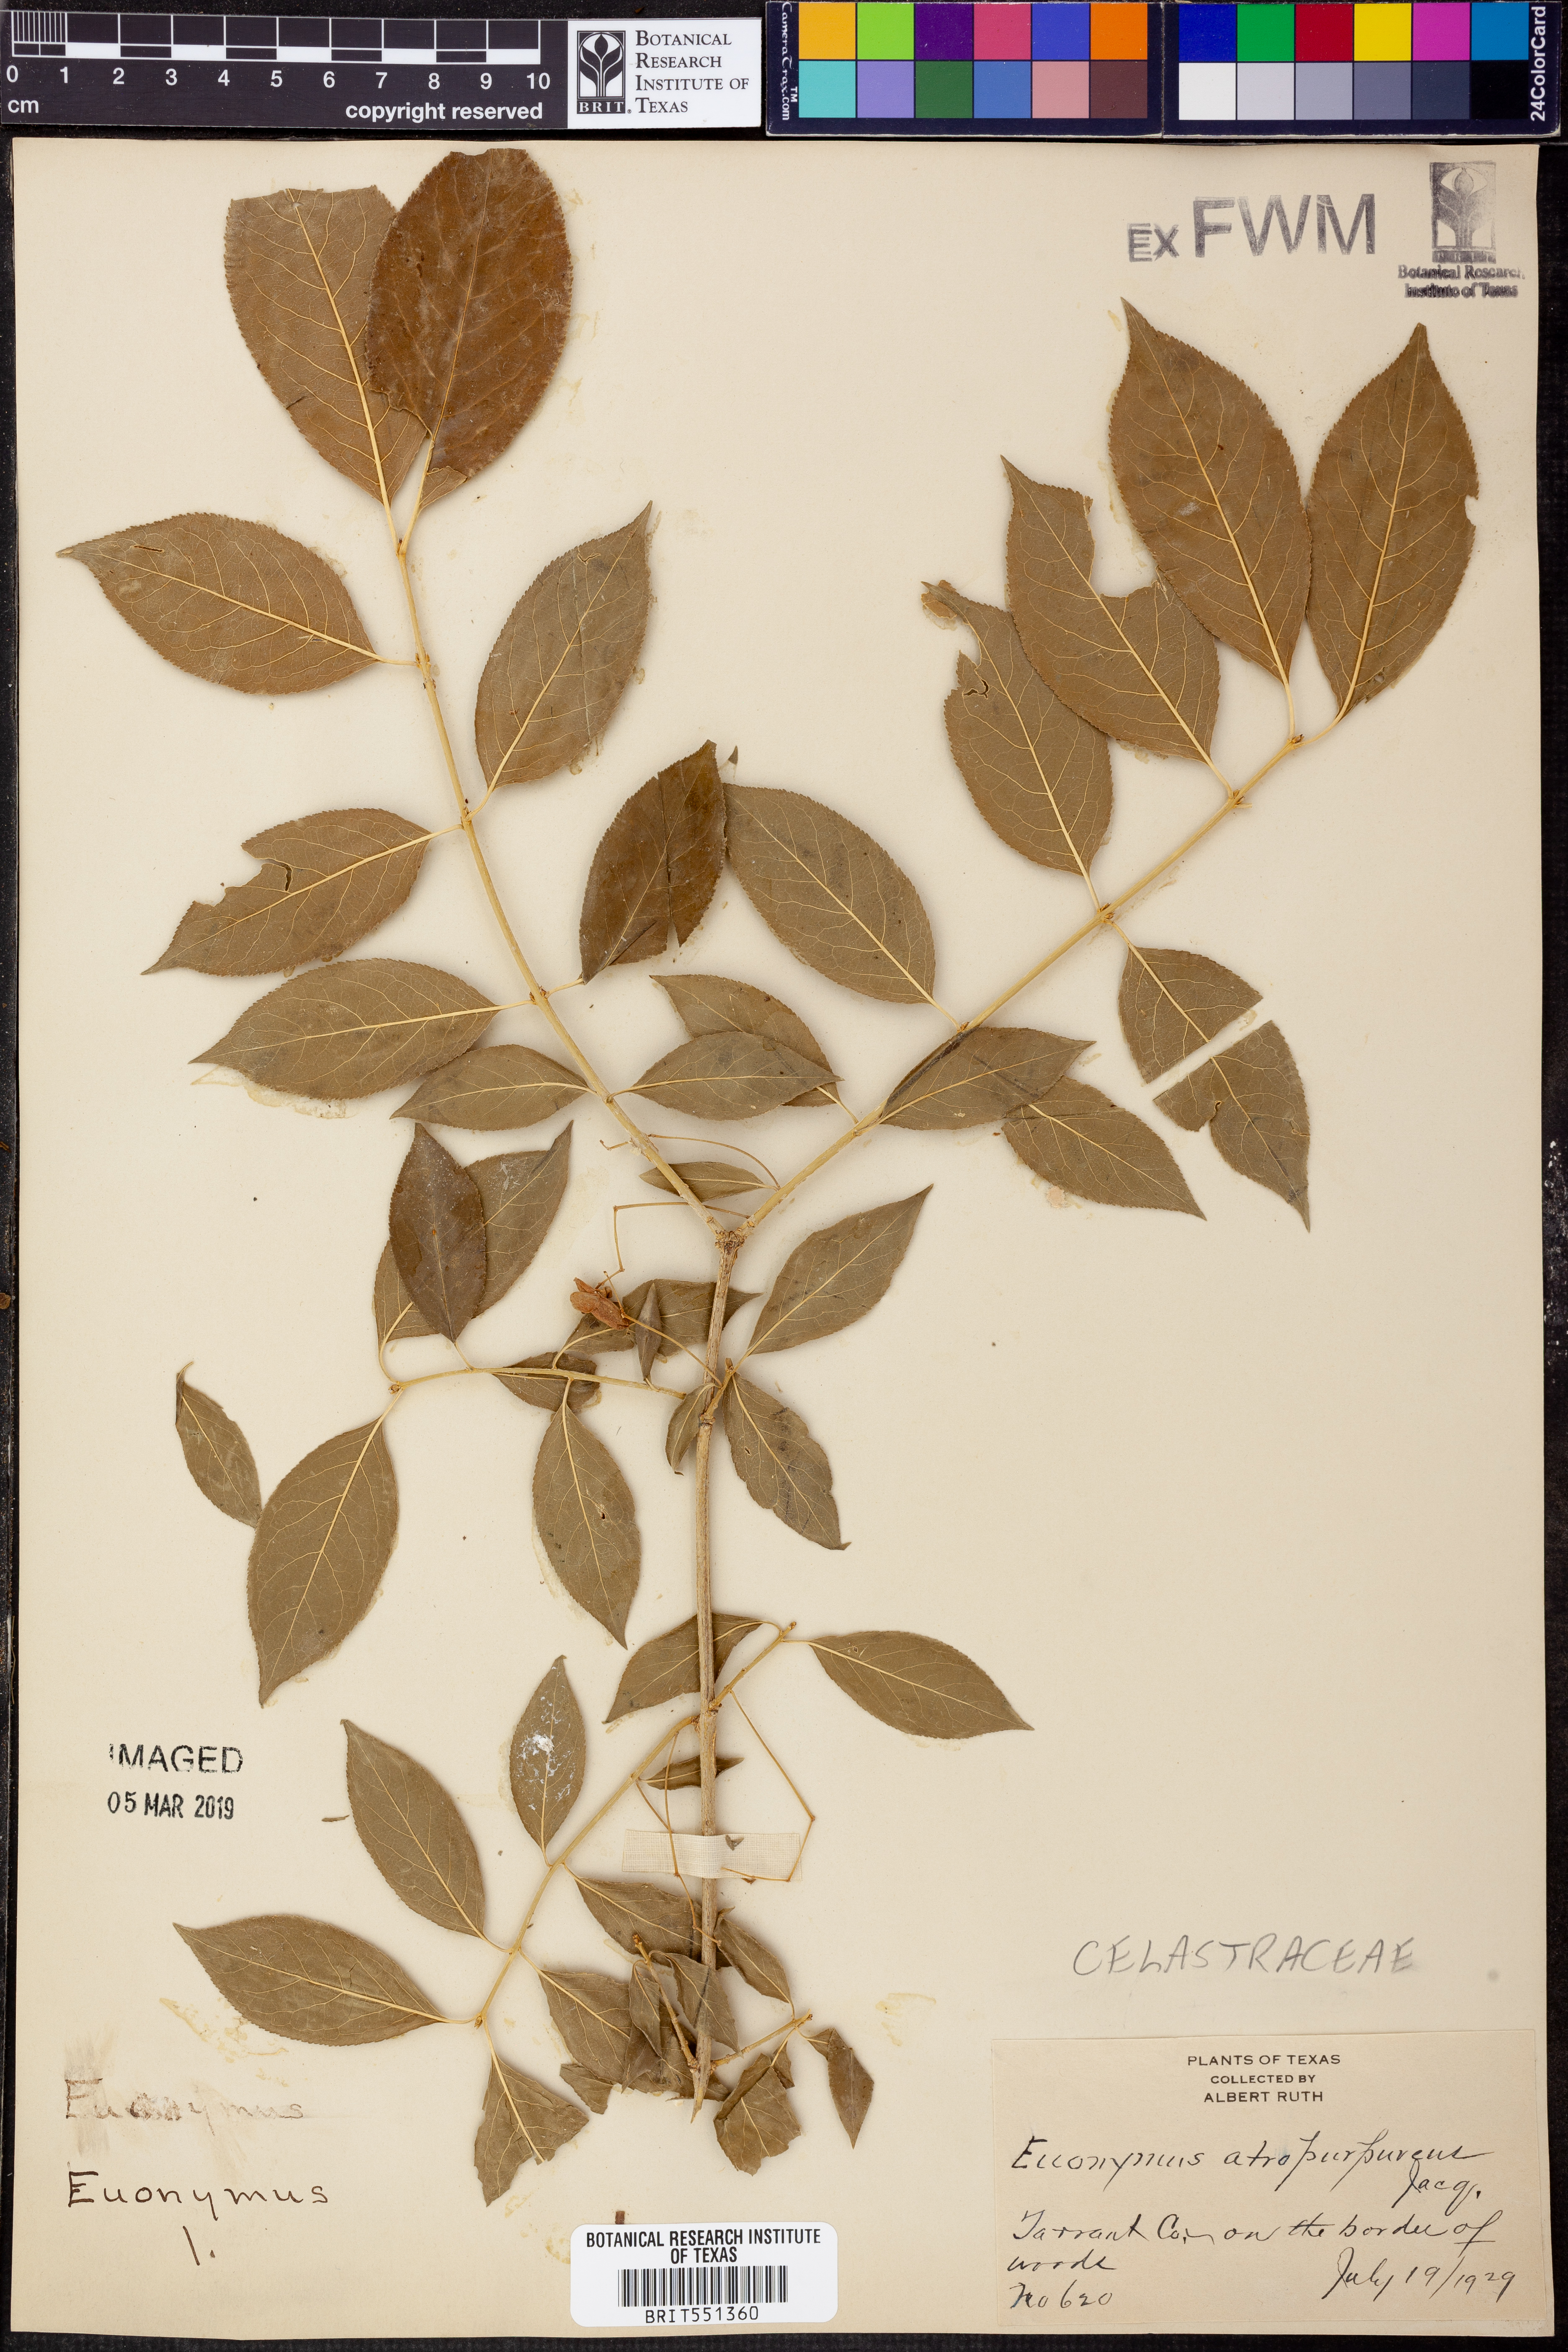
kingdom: Plantae
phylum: Tracheophyta
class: Magnoliopsida
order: Celastrales
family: Celastraceae
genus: Euonymus
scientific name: Euonymus atropurpureus
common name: Eastern wahoo
